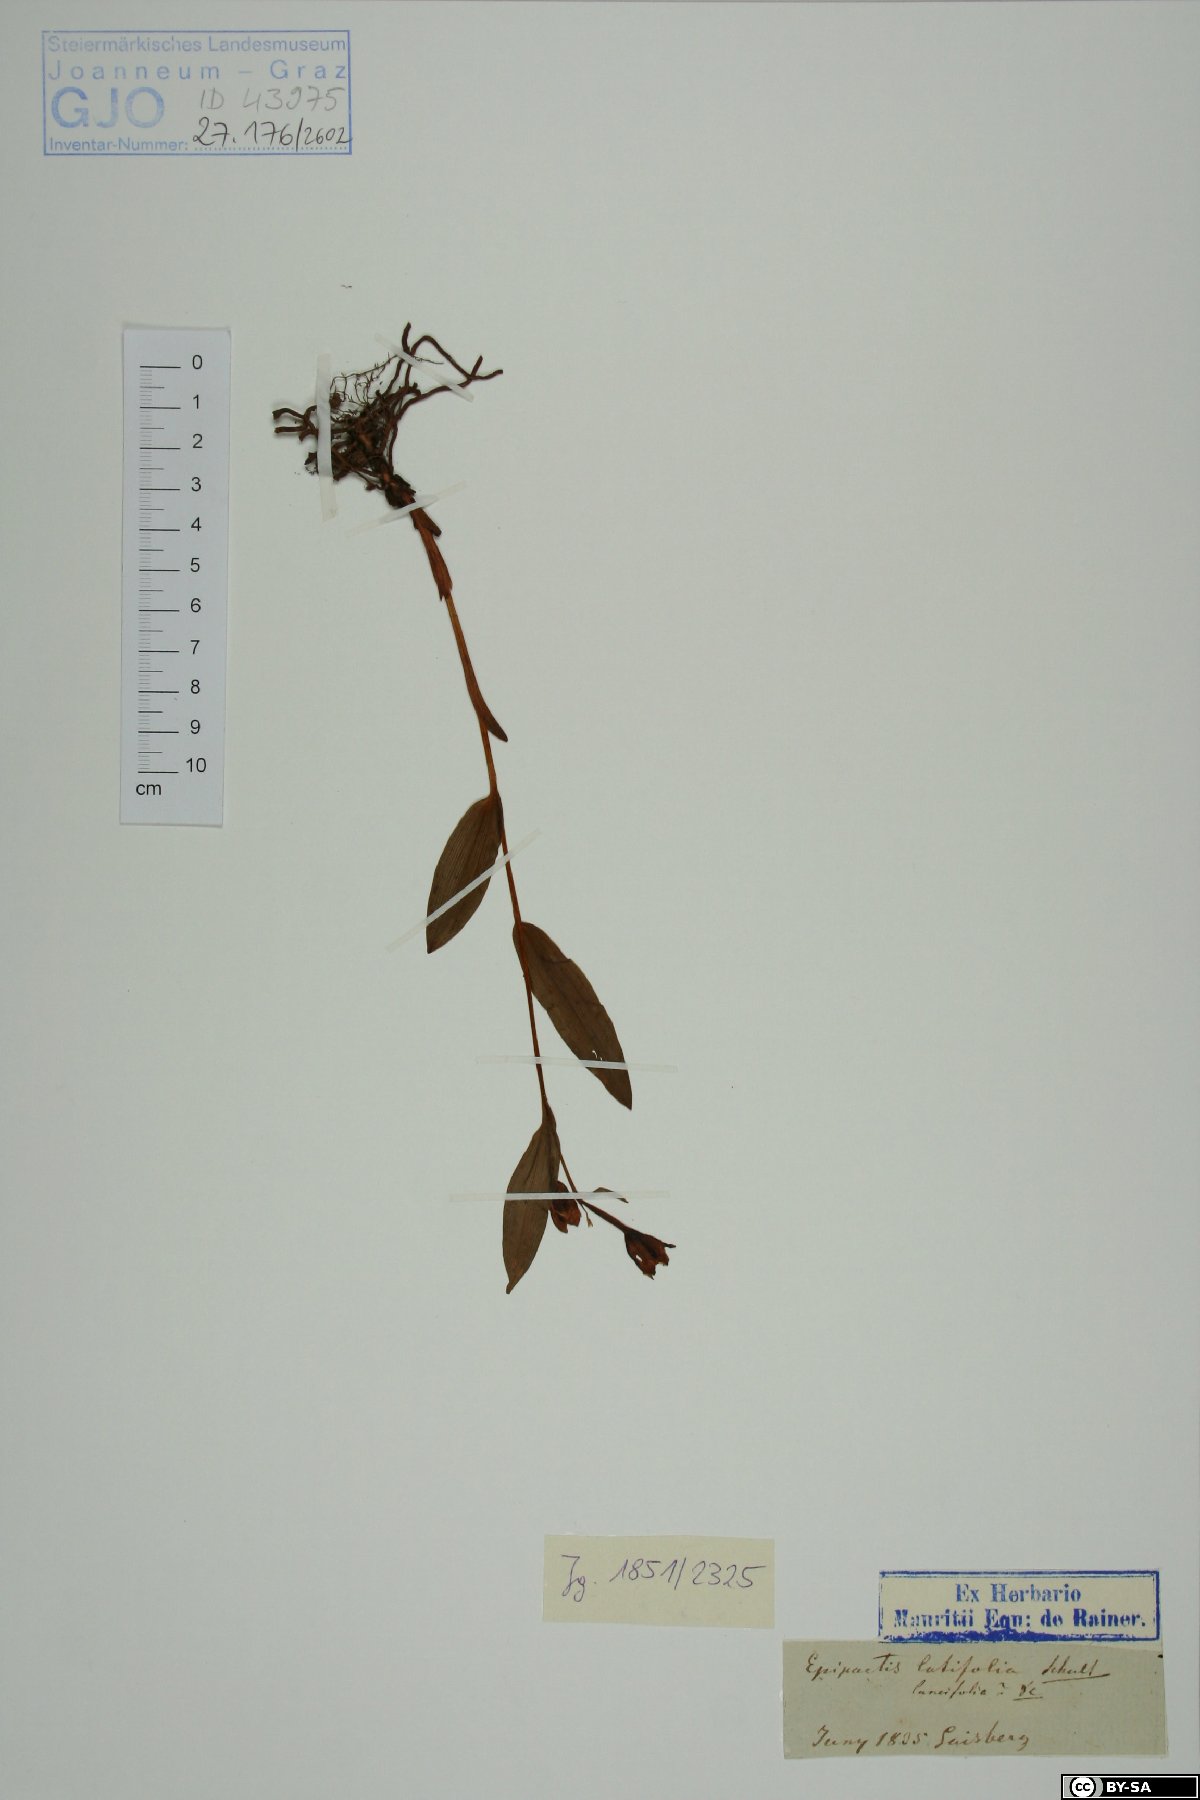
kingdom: Plantae
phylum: Tracheophyta
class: Liliopsida
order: Asparagales
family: Orchidaceae
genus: Epipactis
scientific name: Epipactis helleborine
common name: Broad-leaved helleborine
